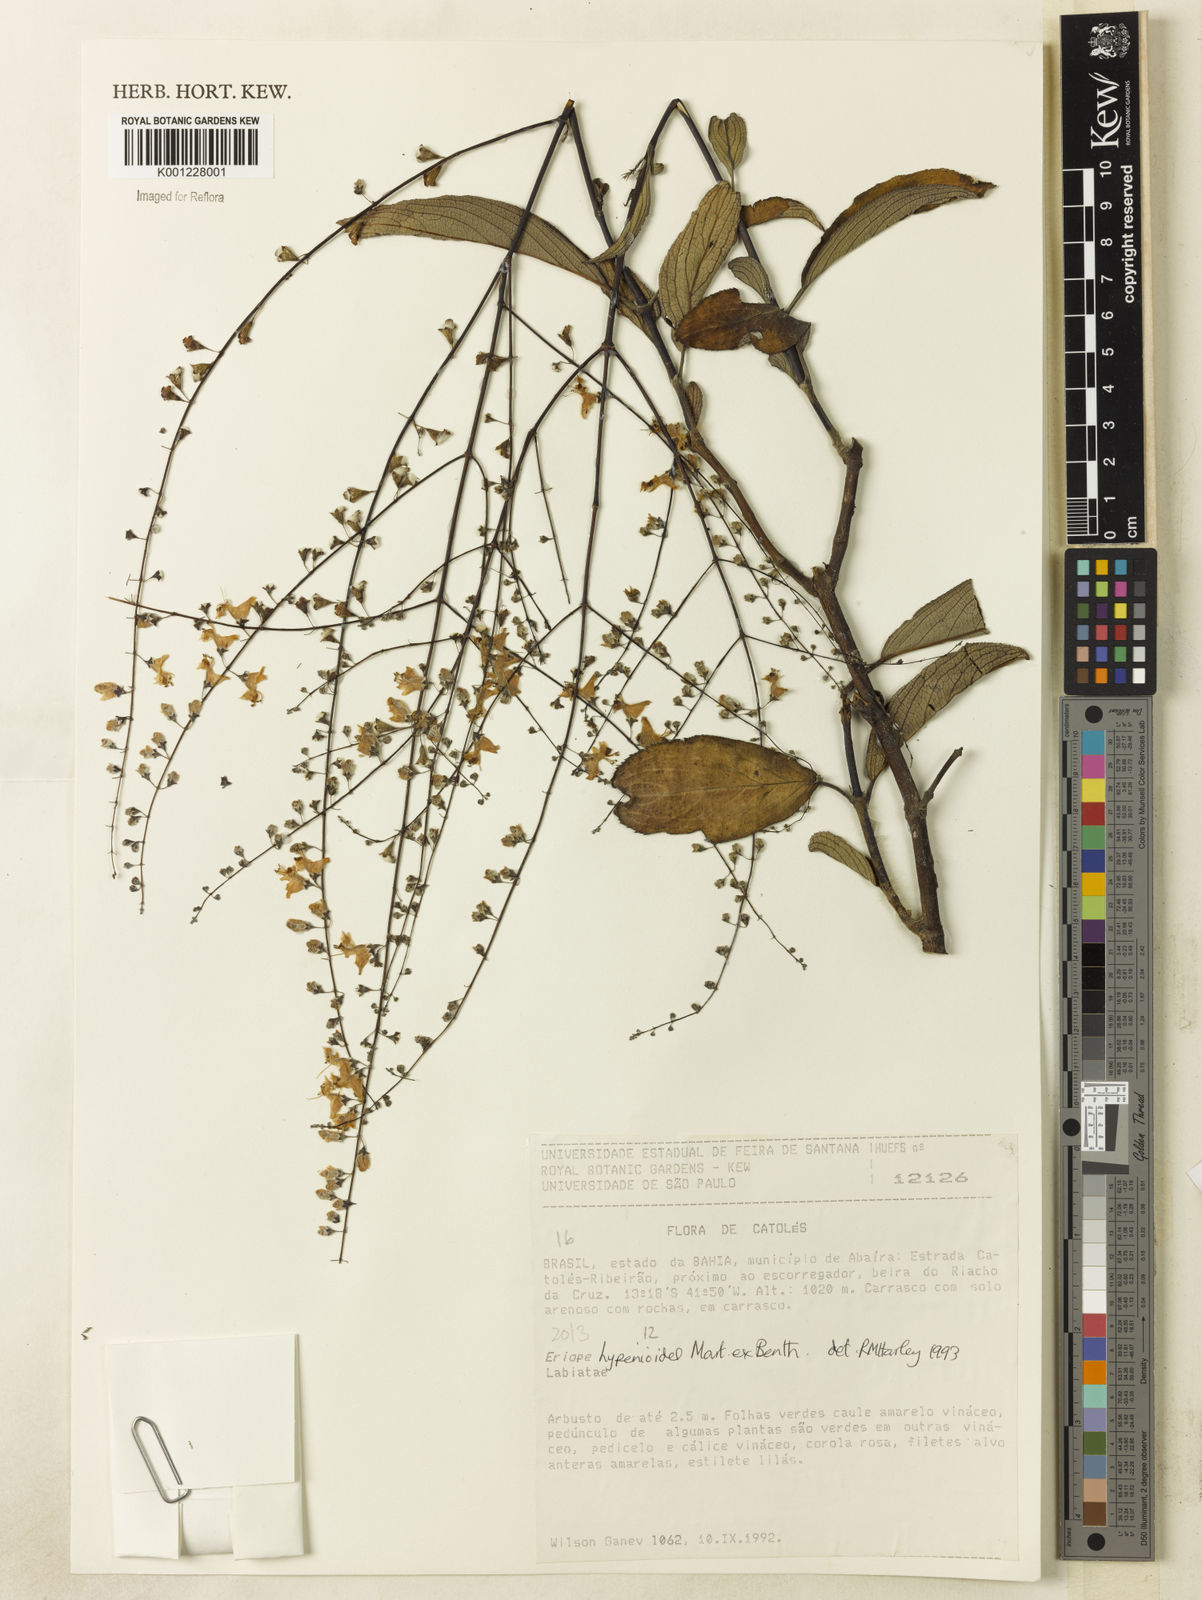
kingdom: Plantae
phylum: Tracheophyta
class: Magnoliopsida
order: Lamiales
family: Lamiaceae
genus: Eriope
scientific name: Eriope hypenioides
